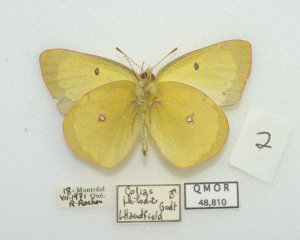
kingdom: Animalia
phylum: Arthropoda
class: Insecta
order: Lepidoptera
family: Pieridae
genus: Colias
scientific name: Colias philodice
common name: Clouded Sulphur
